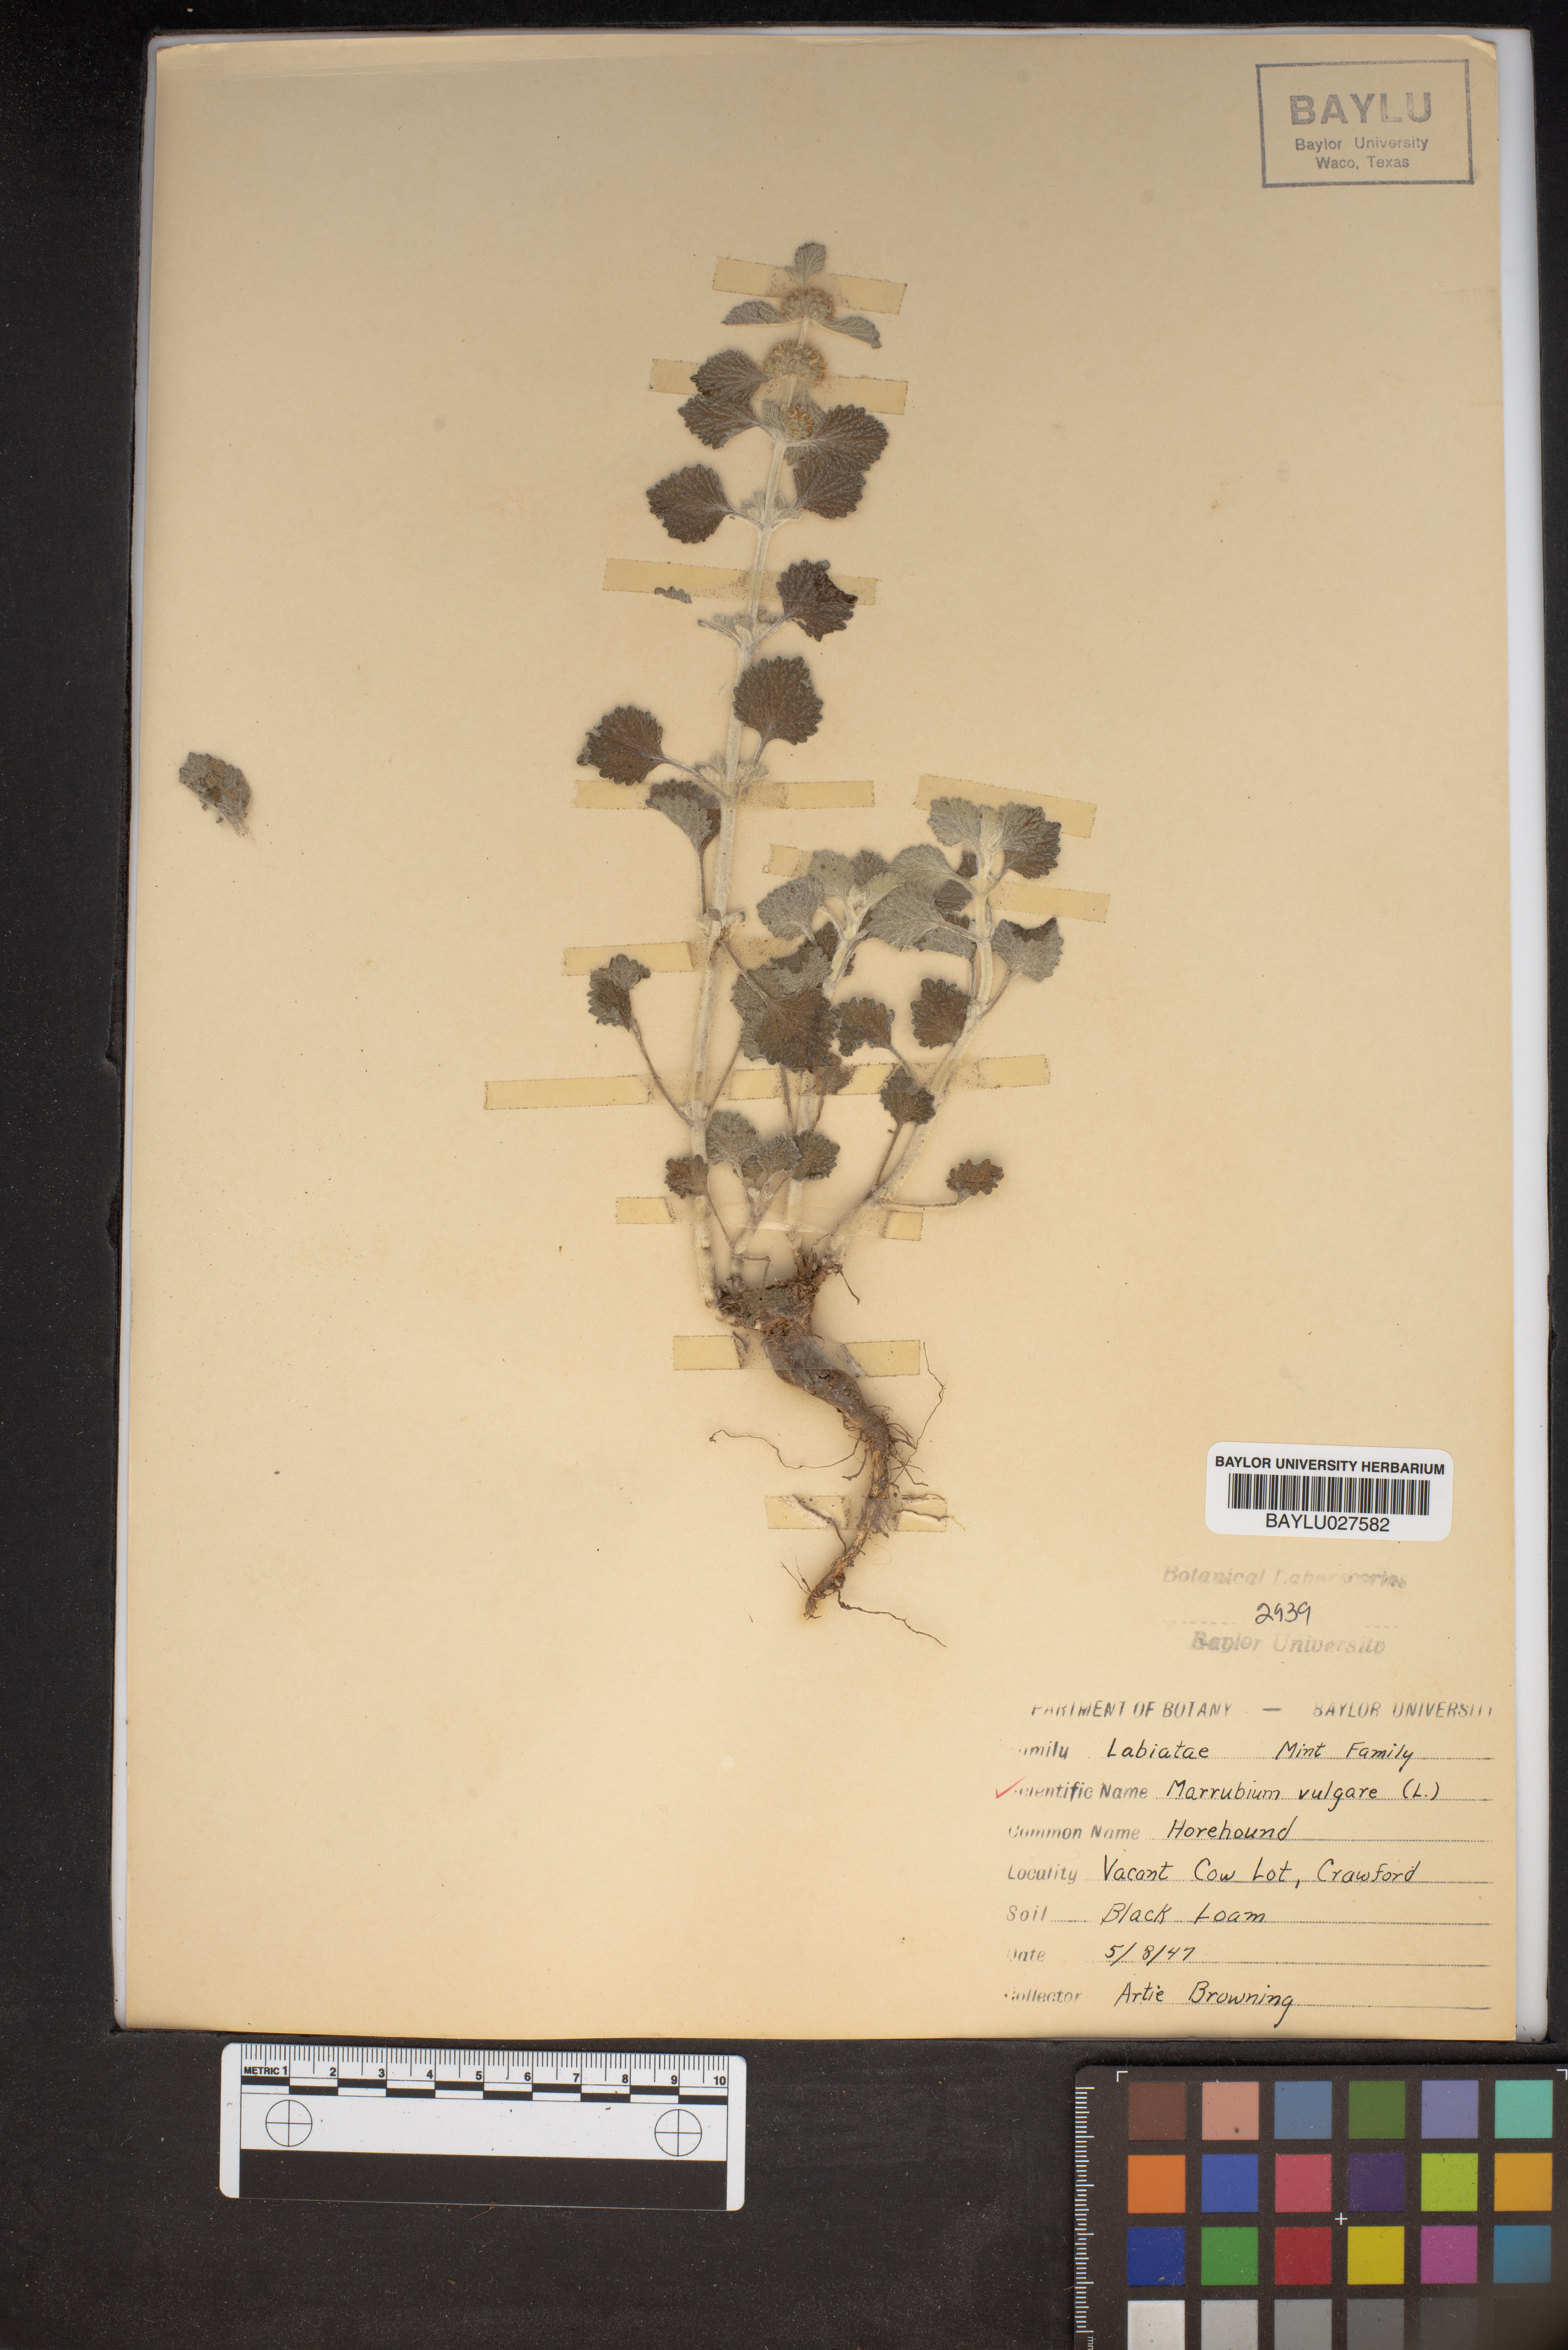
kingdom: Plantae
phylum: Tracheophyta
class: Magnoliopsida
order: Lamiales
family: Lamiaceae
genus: Marrubium
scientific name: Marrubium vulgare
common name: Horehound
